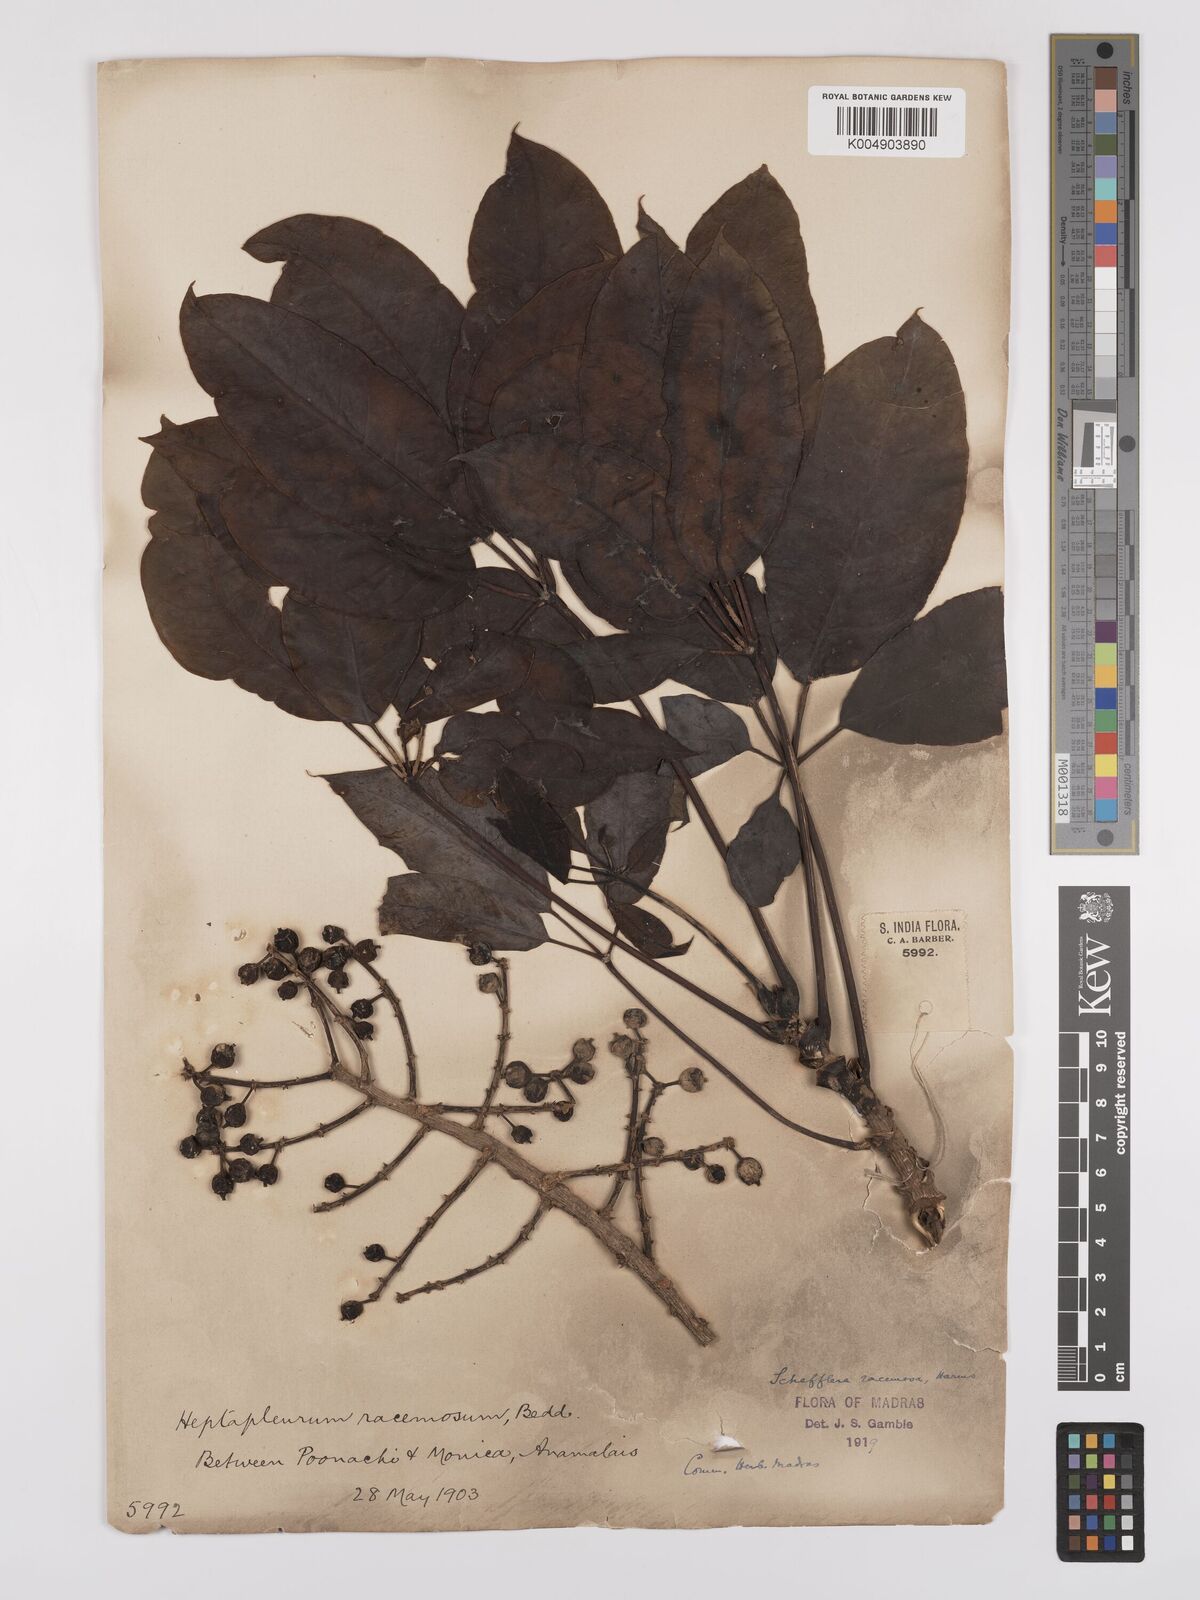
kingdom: Plantae
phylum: Tracheophyta
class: Magnoliopsida
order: Apiales
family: Araliaceae
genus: Heptapleurum
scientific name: Heptapleurum racemosum
